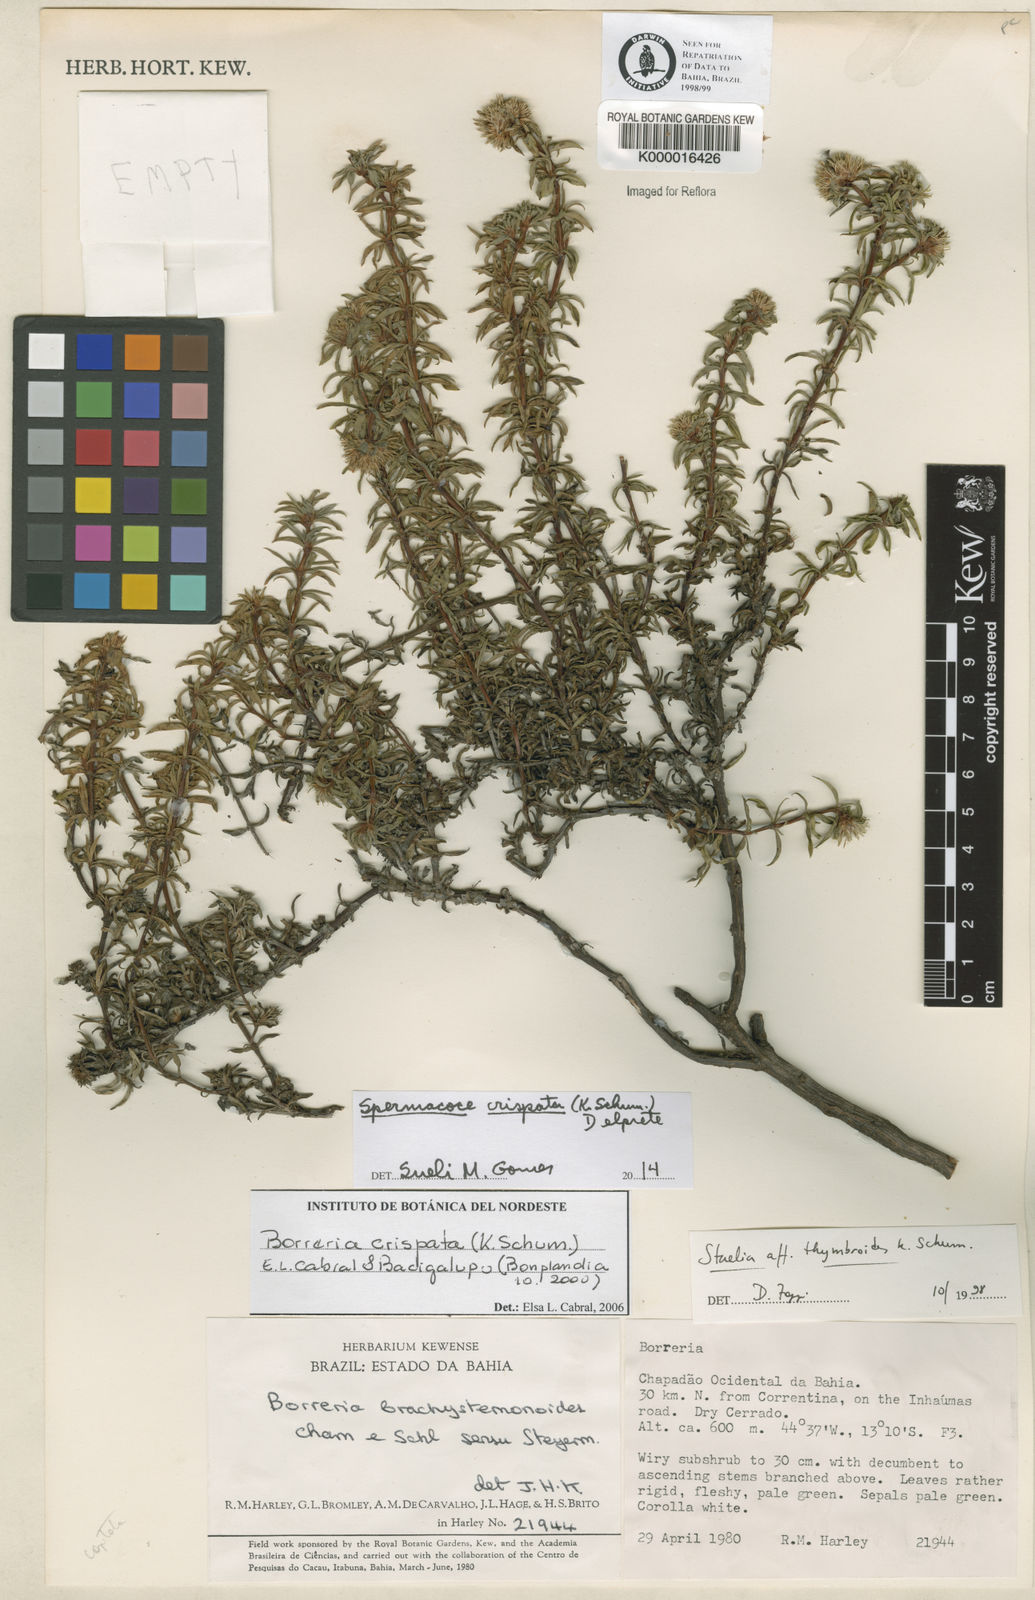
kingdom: Plantae
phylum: Tracheophyta
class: Magnoliopsida
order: Gentianales
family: Rubiaceae
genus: Staelia
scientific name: Staelia thymbroides
